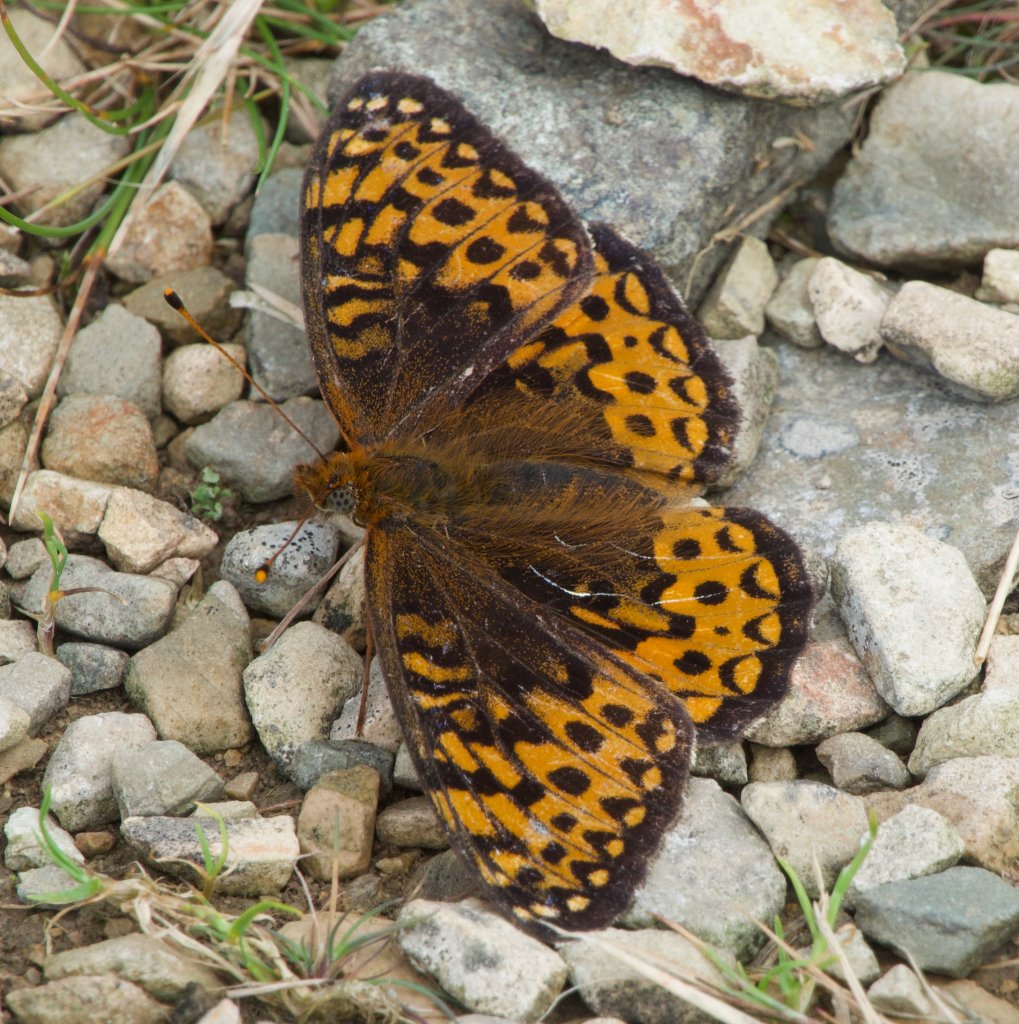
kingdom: Animalia
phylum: Arthropoda
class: Insecta
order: Lepidoptera
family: Nymphalidae
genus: Speyeria
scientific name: Speyeria atlantis
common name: Atlantis Fritillary
